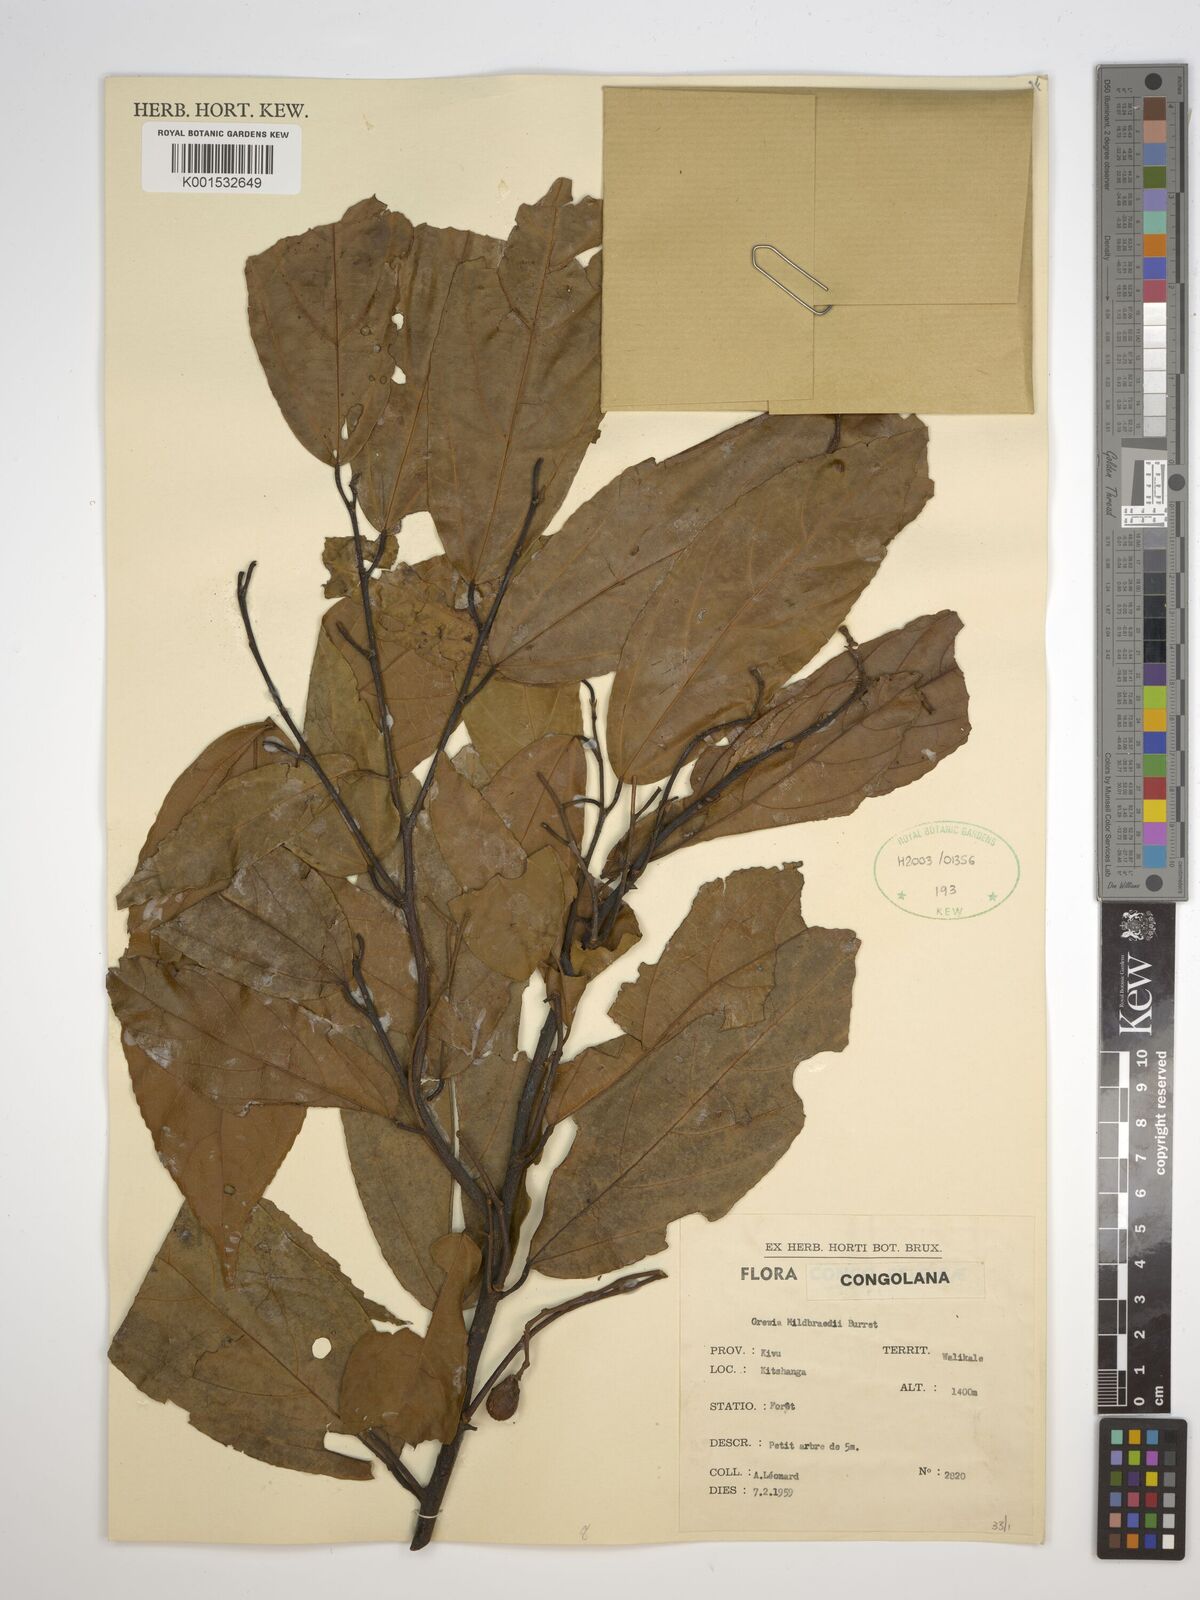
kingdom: Plantae
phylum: Tracheophyta
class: Magnoliopsida
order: Malvales
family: Malvaceae
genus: Microcos
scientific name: Microcos mildbraedii
